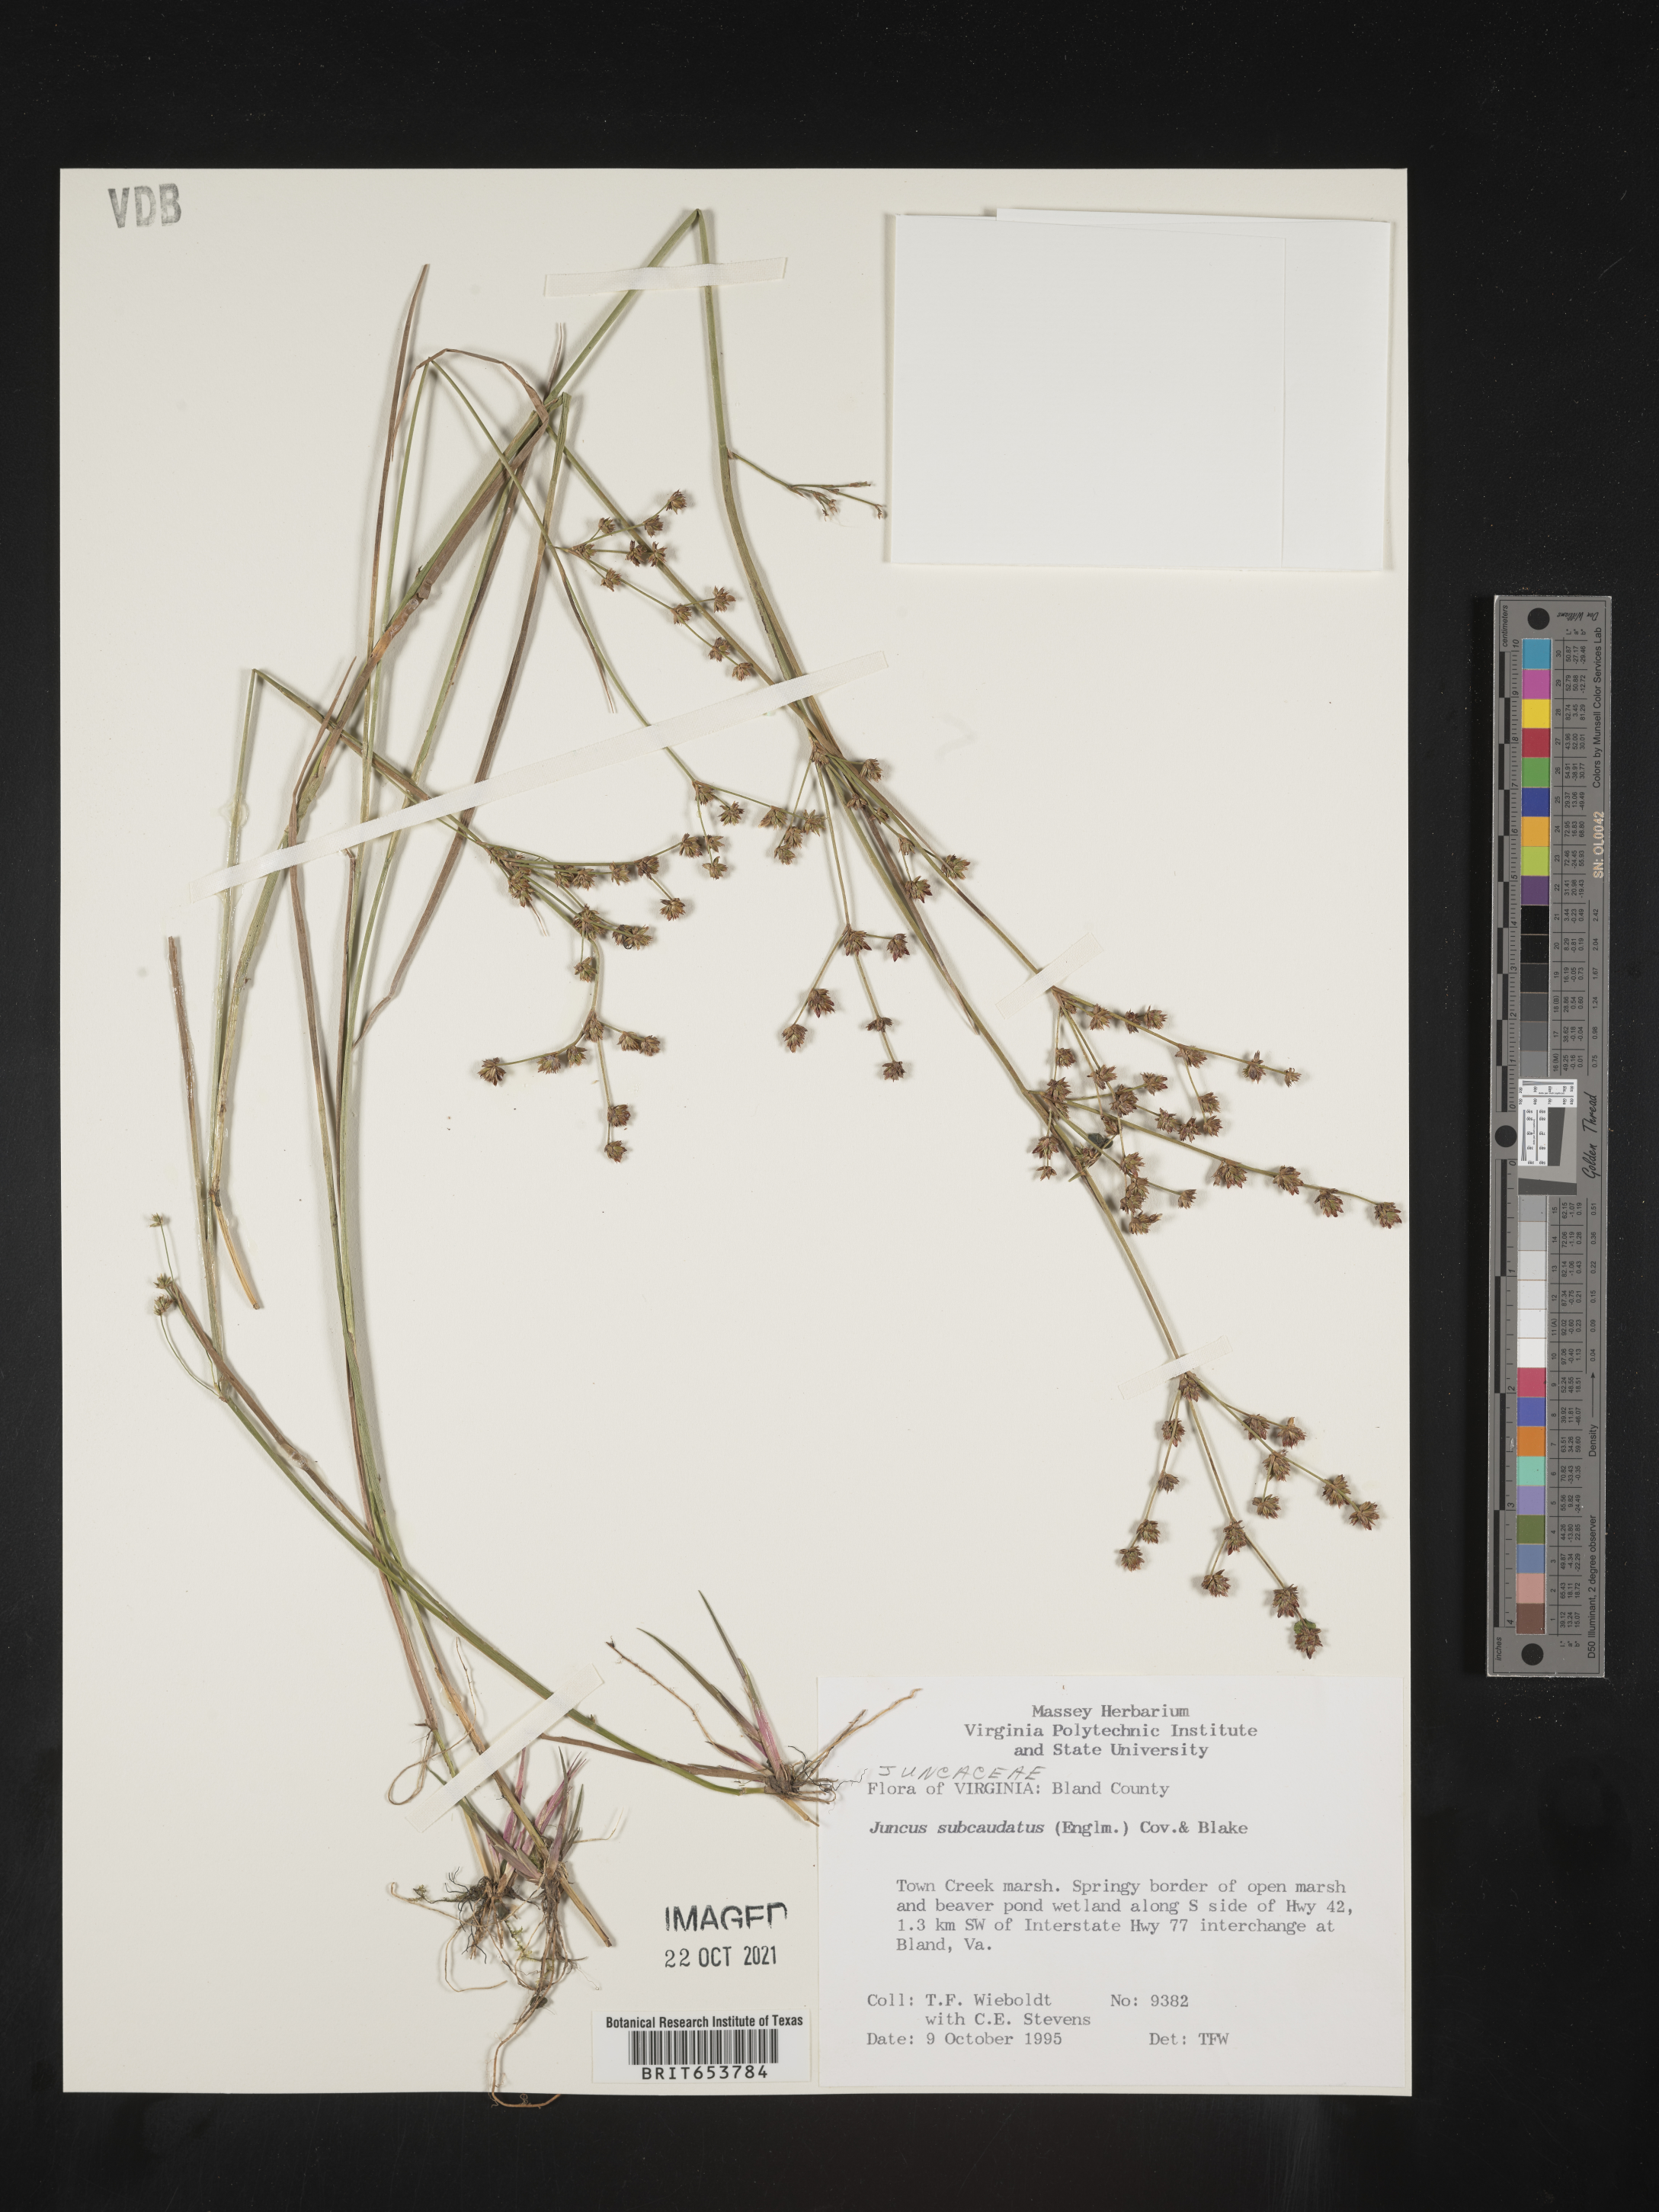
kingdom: Plantae
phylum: Tracheophyta
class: Liliopsida
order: Poales
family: Juncaceae
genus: Juncus
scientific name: Juncus subcaudatus
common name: Engelmann's rush
